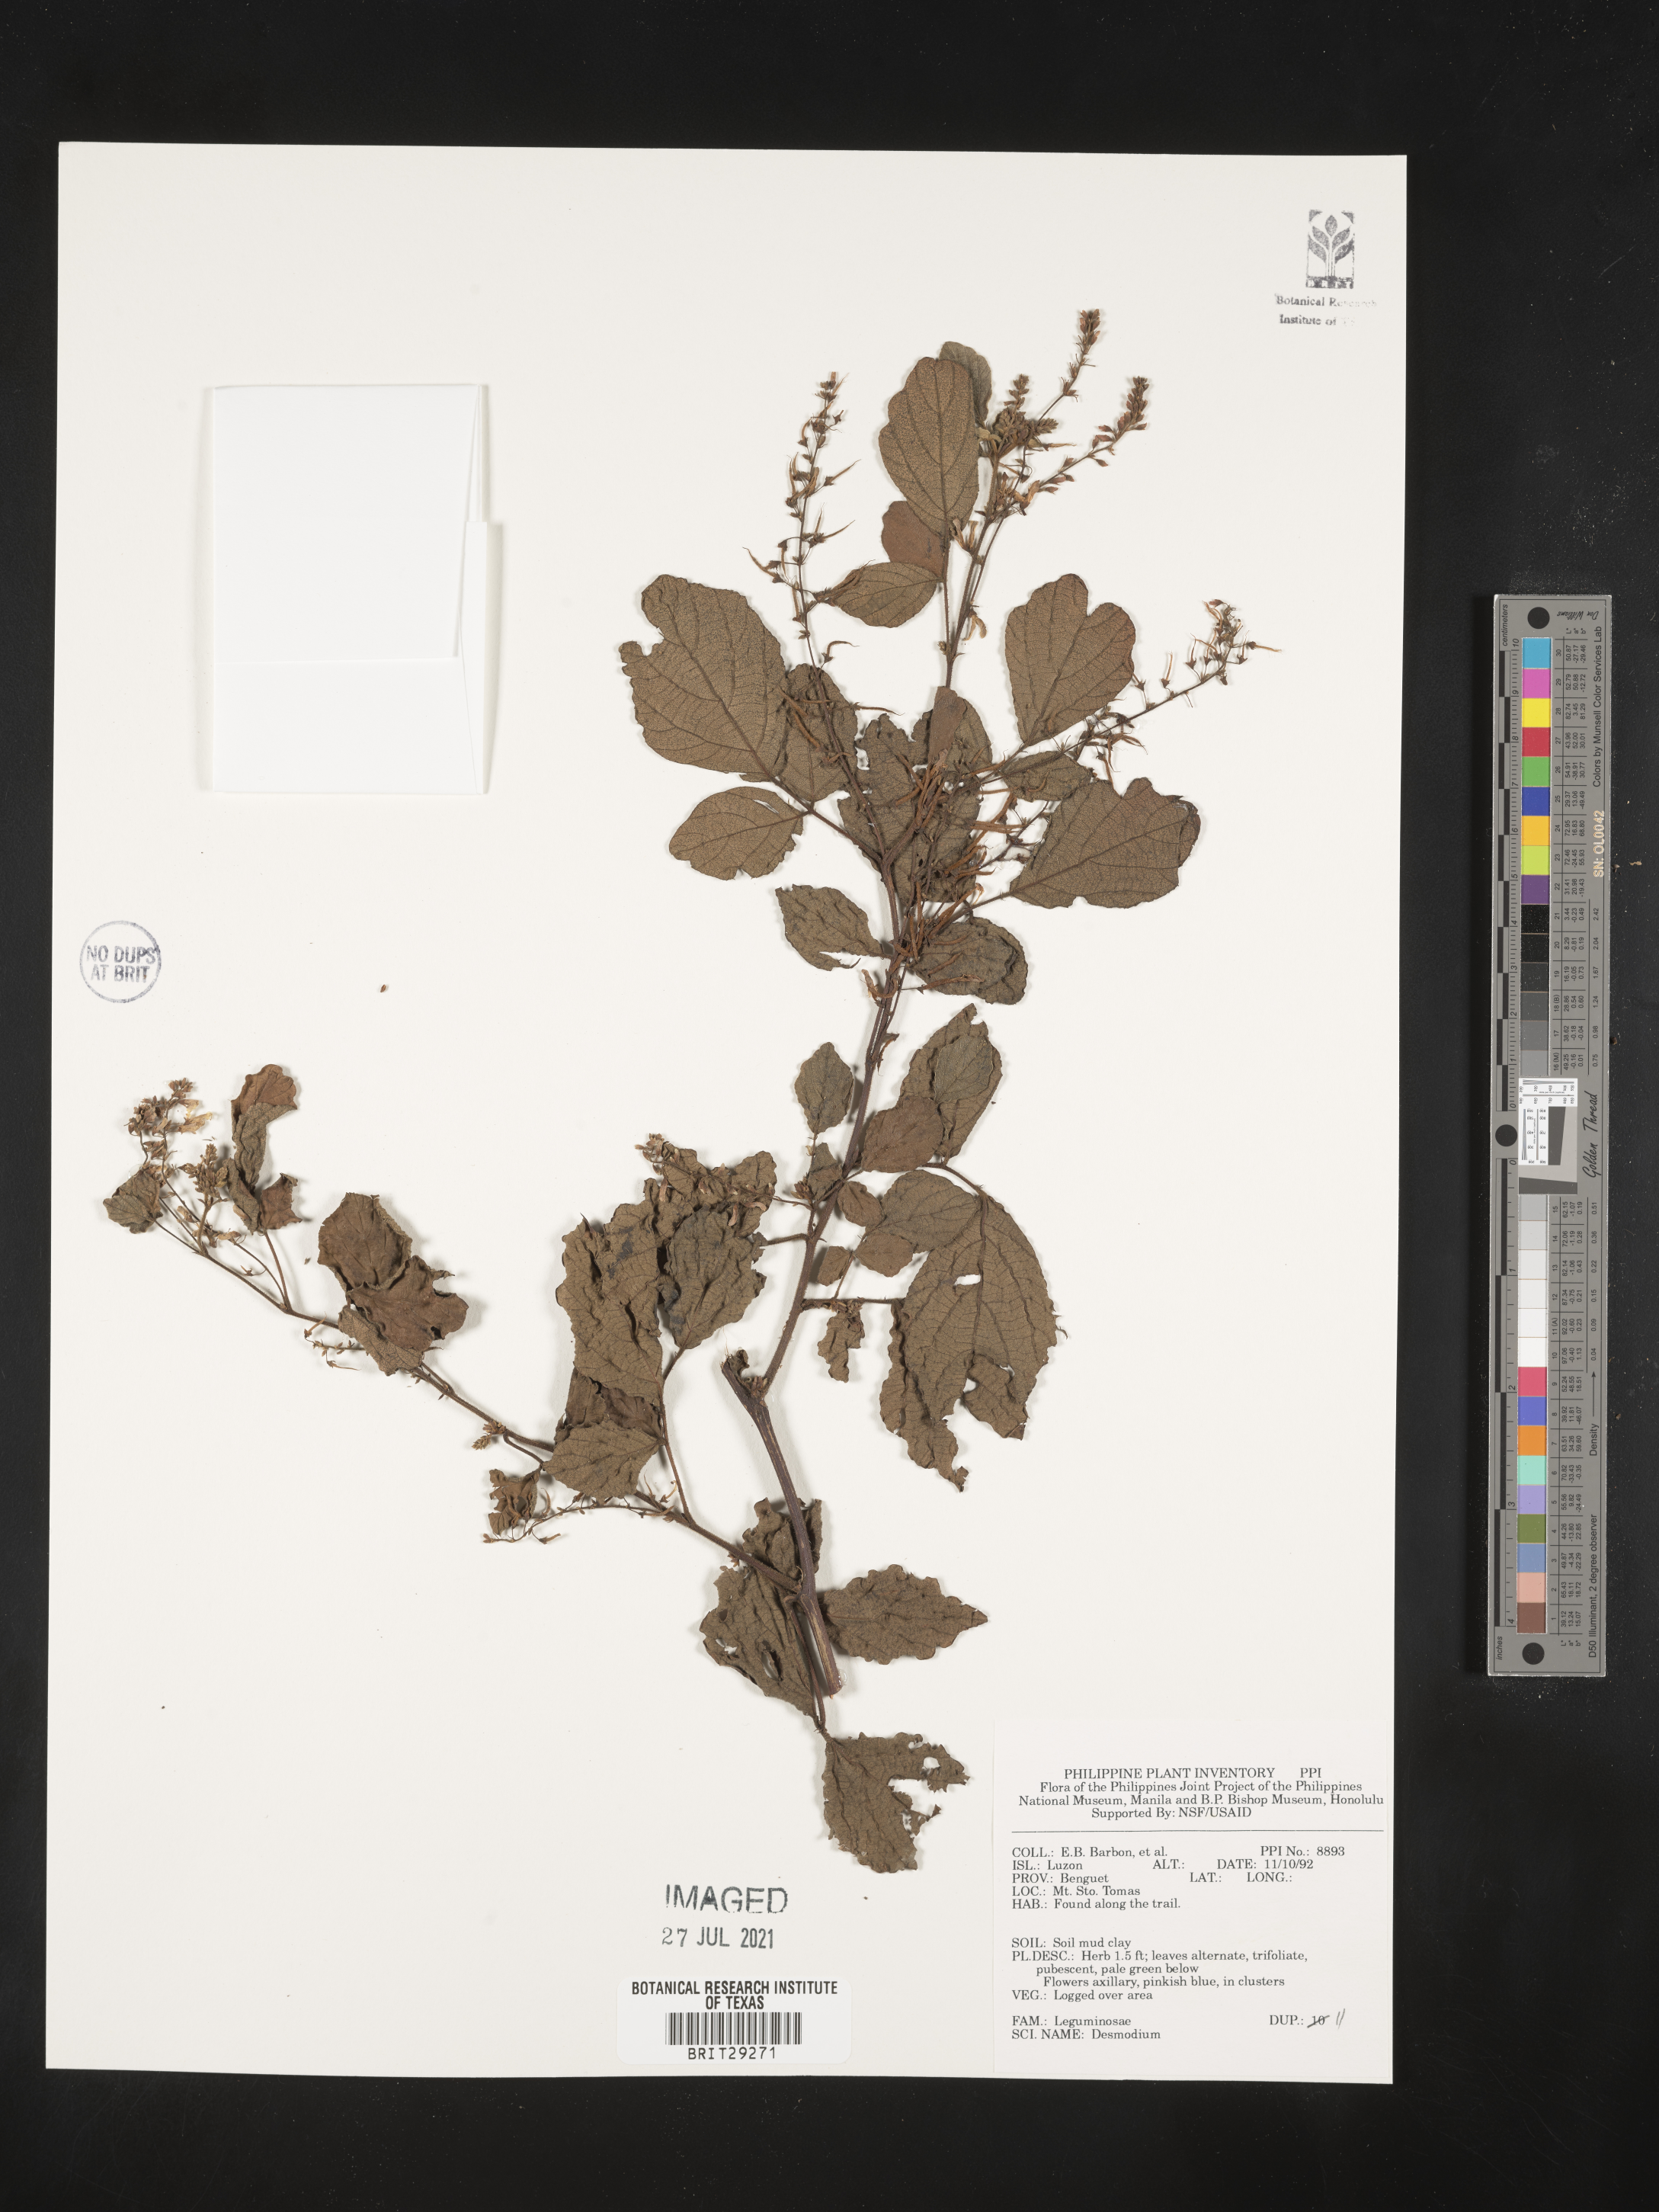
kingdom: Plantae
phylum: Tracheophyta
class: Magnoliopsida
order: Fabales
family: Fabaceae
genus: Desmodium
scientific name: Desmodium
